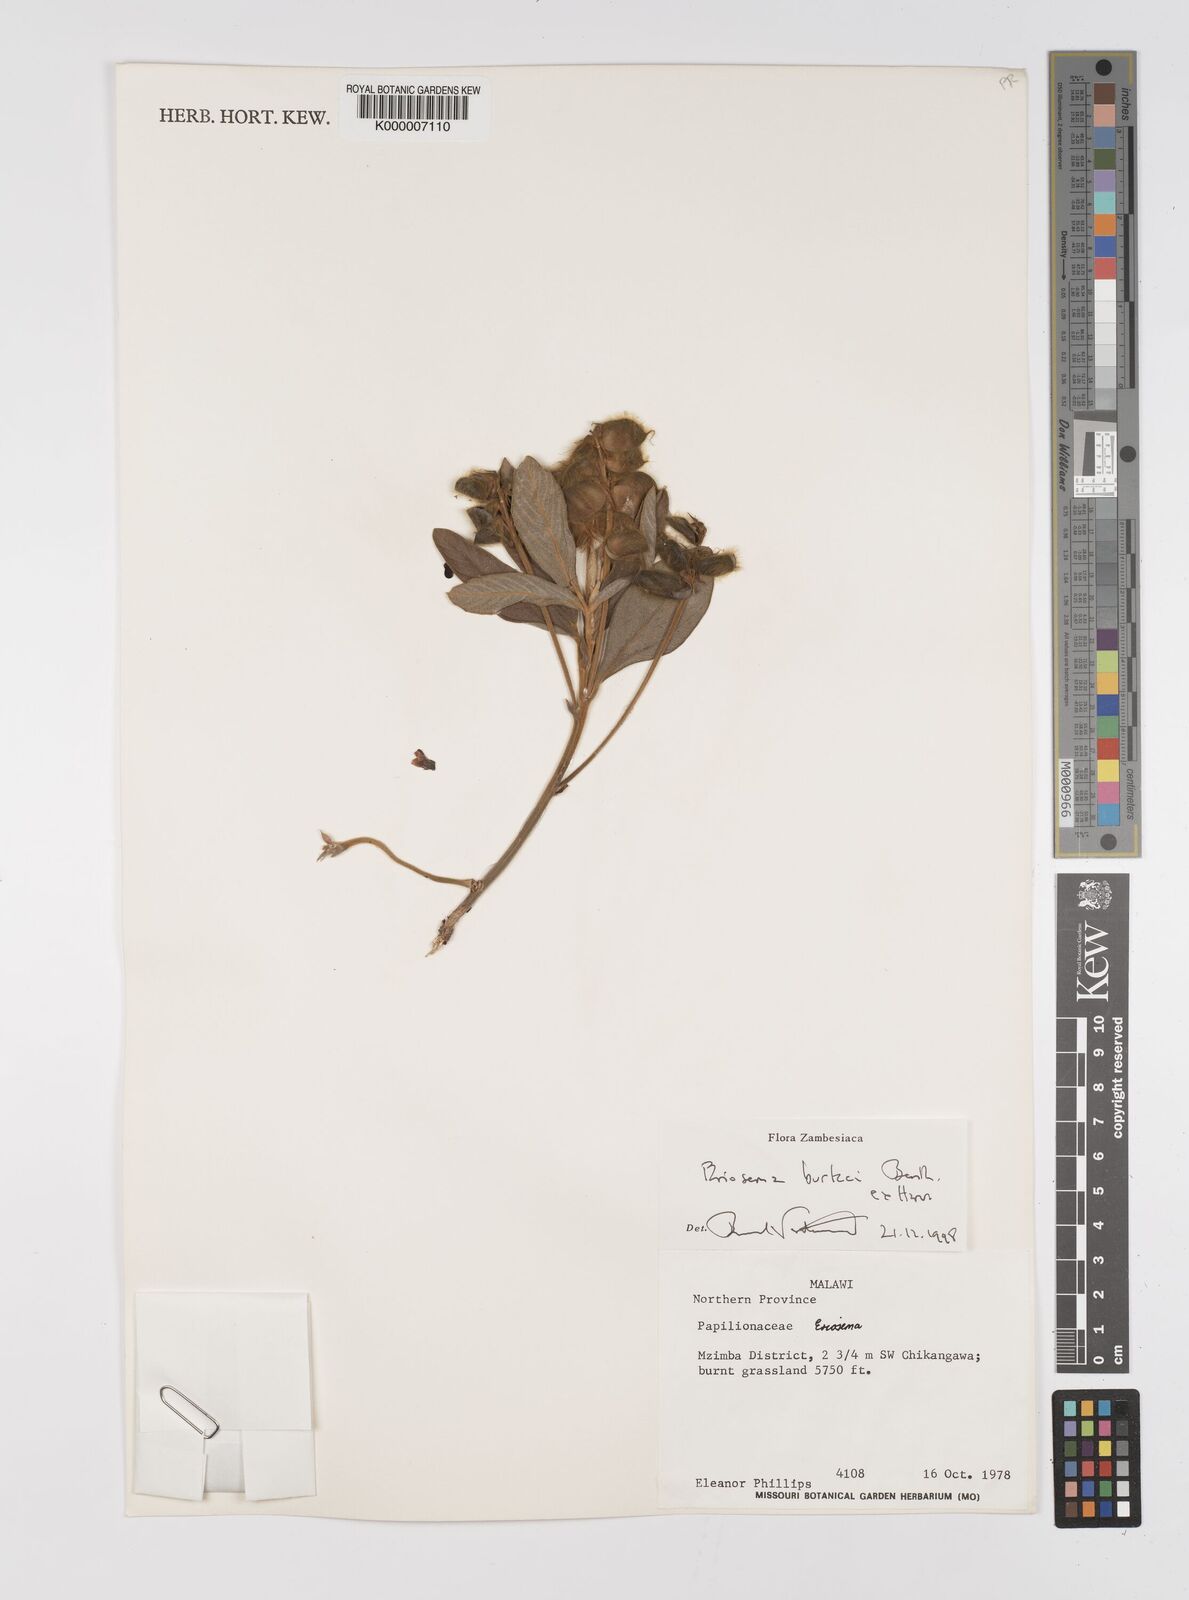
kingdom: Plantae
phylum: Tracheophyta
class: Magnoliopsida
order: Fabales
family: Fabaceae
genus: Eriosema
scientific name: Eriosema burkei
